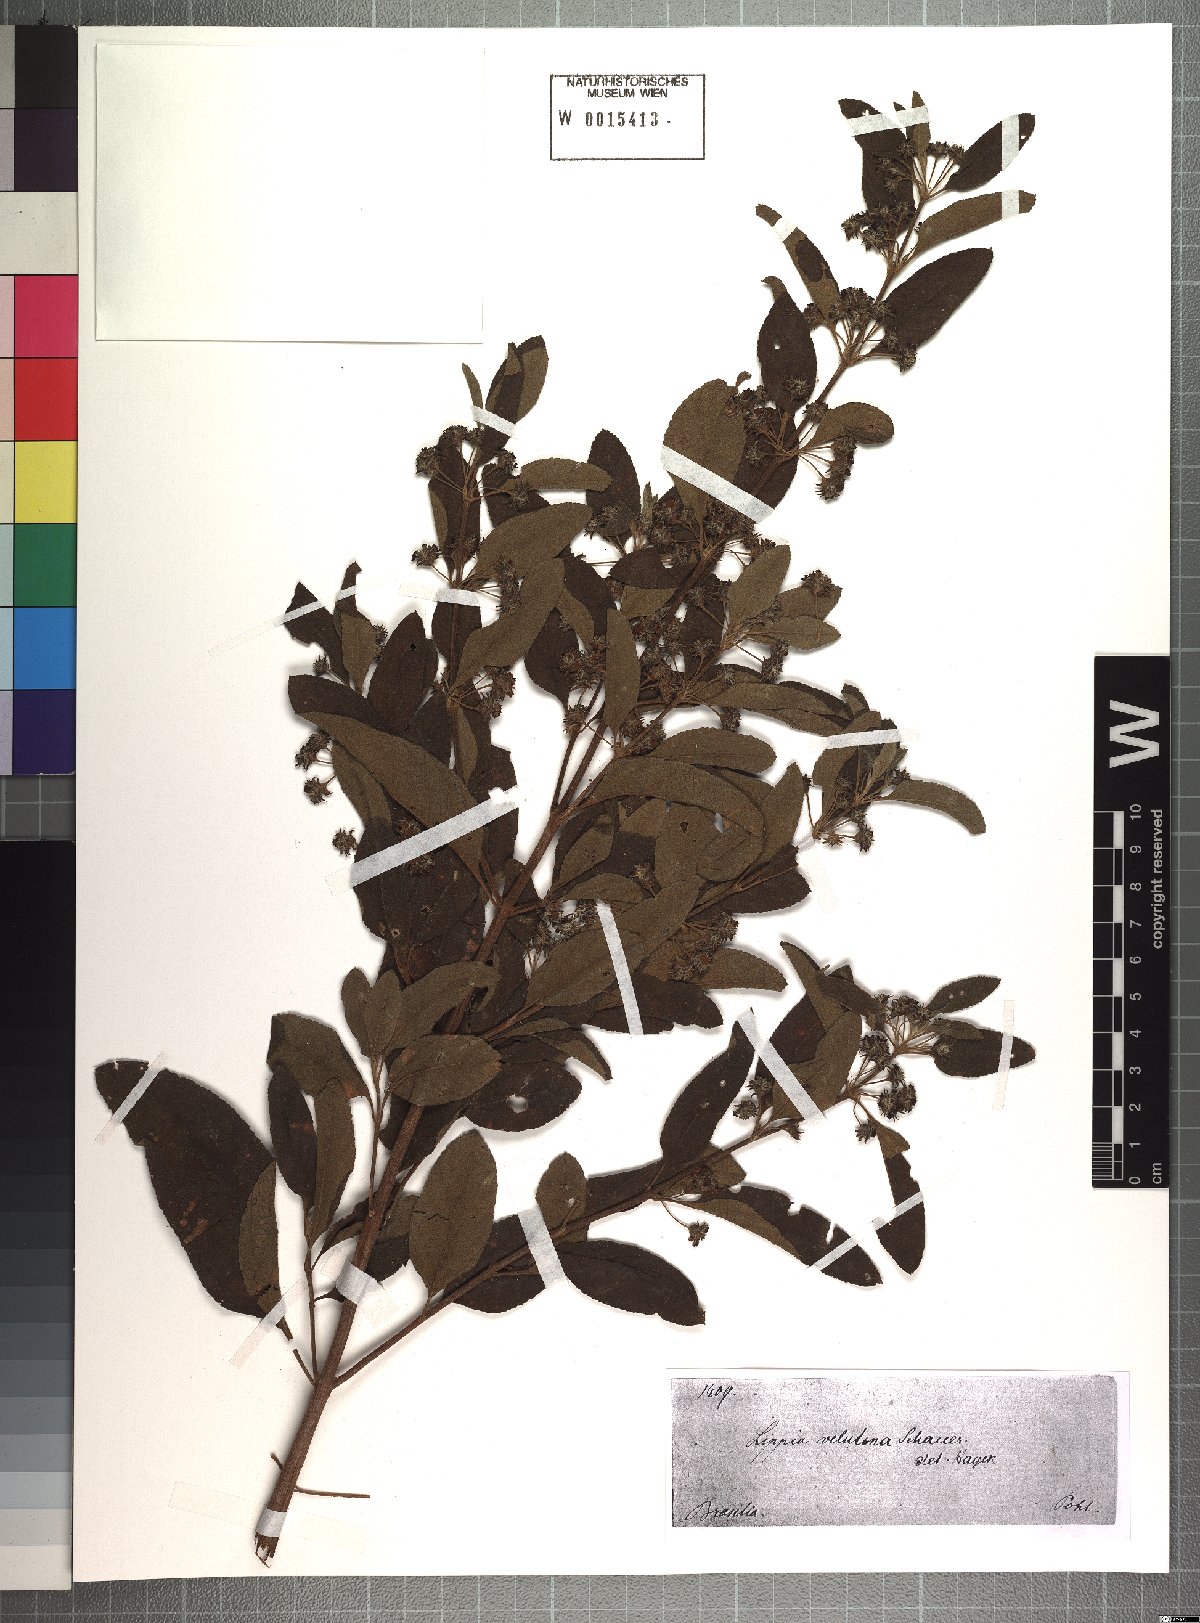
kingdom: Plantae
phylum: Tracheophyta
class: Magnoliopsida
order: Lamiales
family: Verbenaceae
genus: Lippia
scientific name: Lippia origanoides
